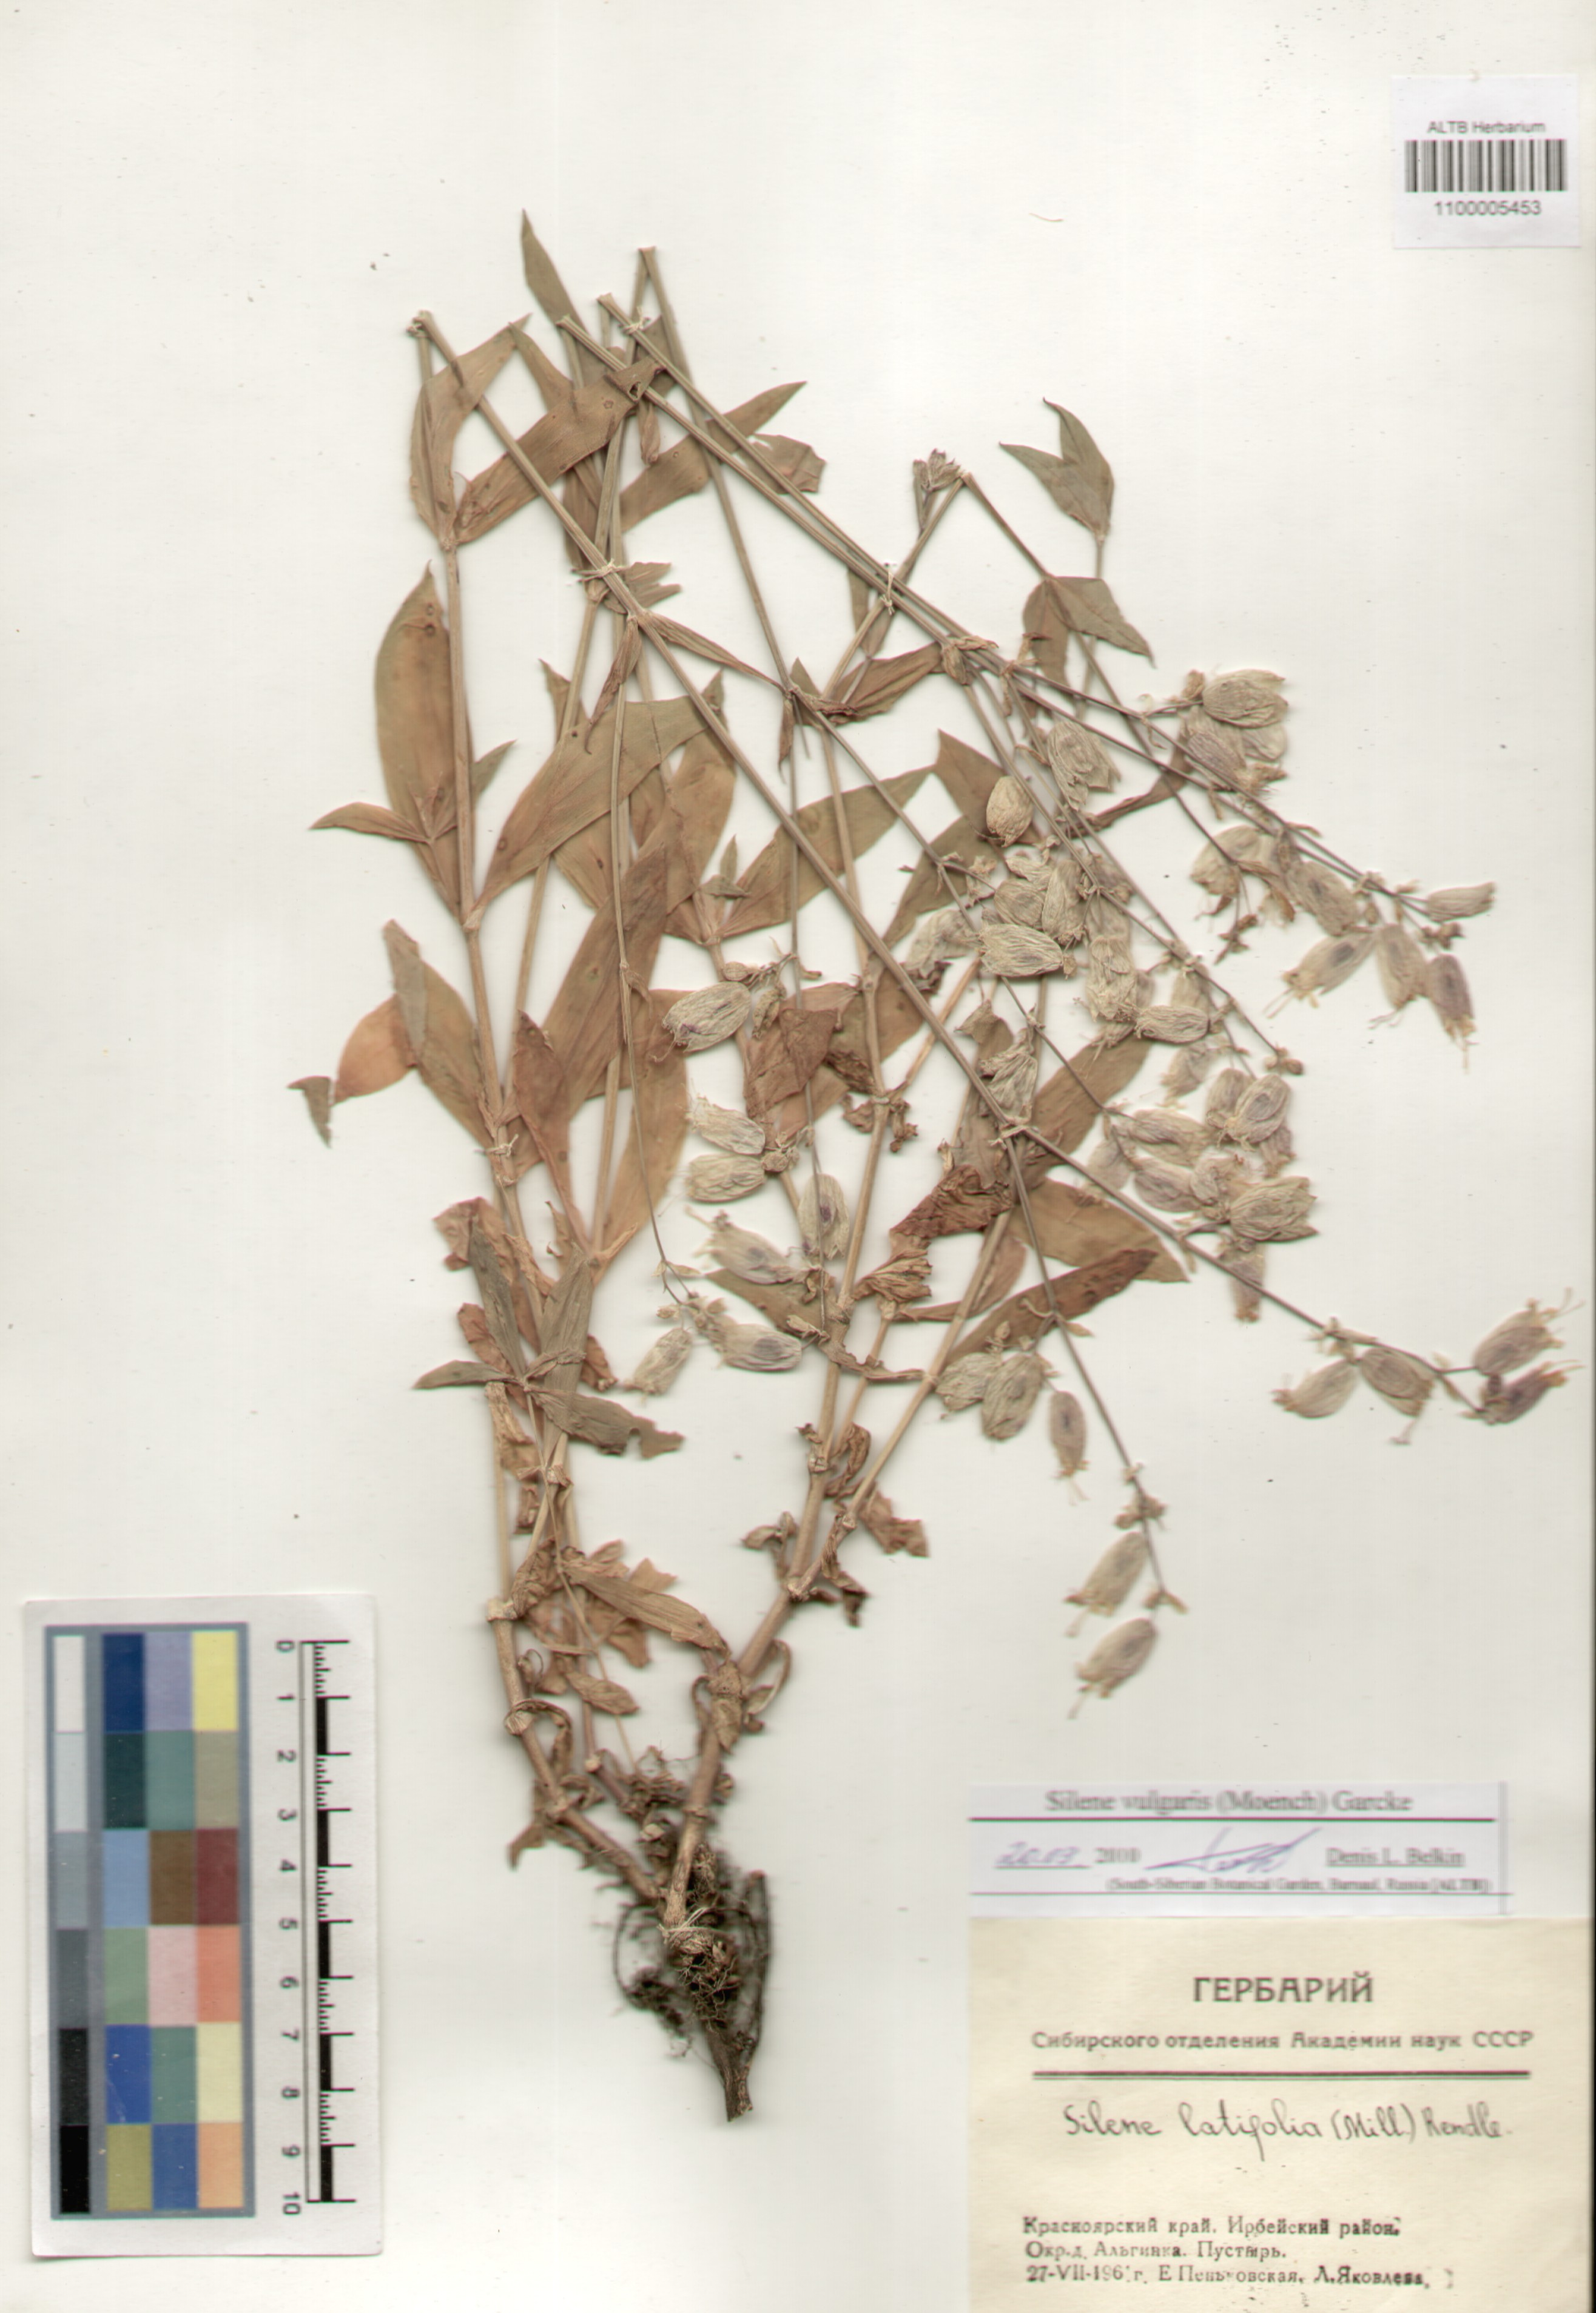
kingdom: Plantae
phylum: Tracheophyta
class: Magnoliopsida
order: Caryophyllales
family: Caryophyllaceae
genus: Silene
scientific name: Silene vulgaris
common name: Bladder campion
